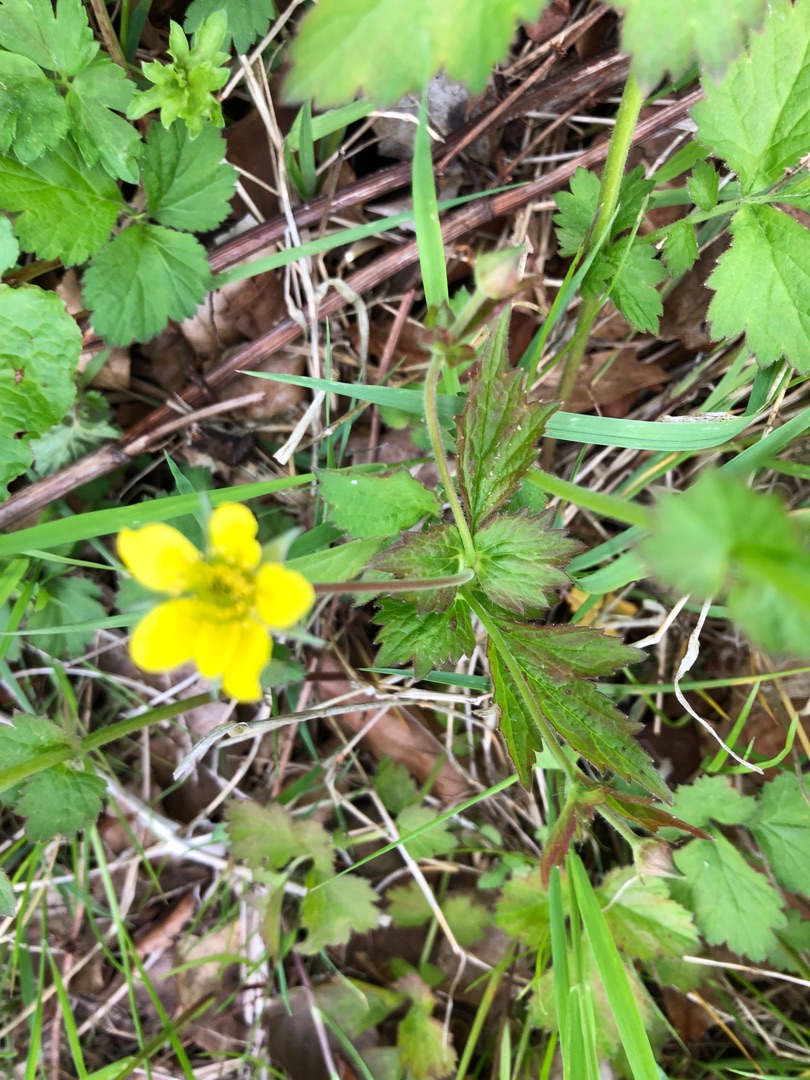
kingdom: Plantae
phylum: Tracheophyta
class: Magnoliopsida
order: Rosales
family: Rosaceae
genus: Geum
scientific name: Geum urbanum
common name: Feber-nellikerod
